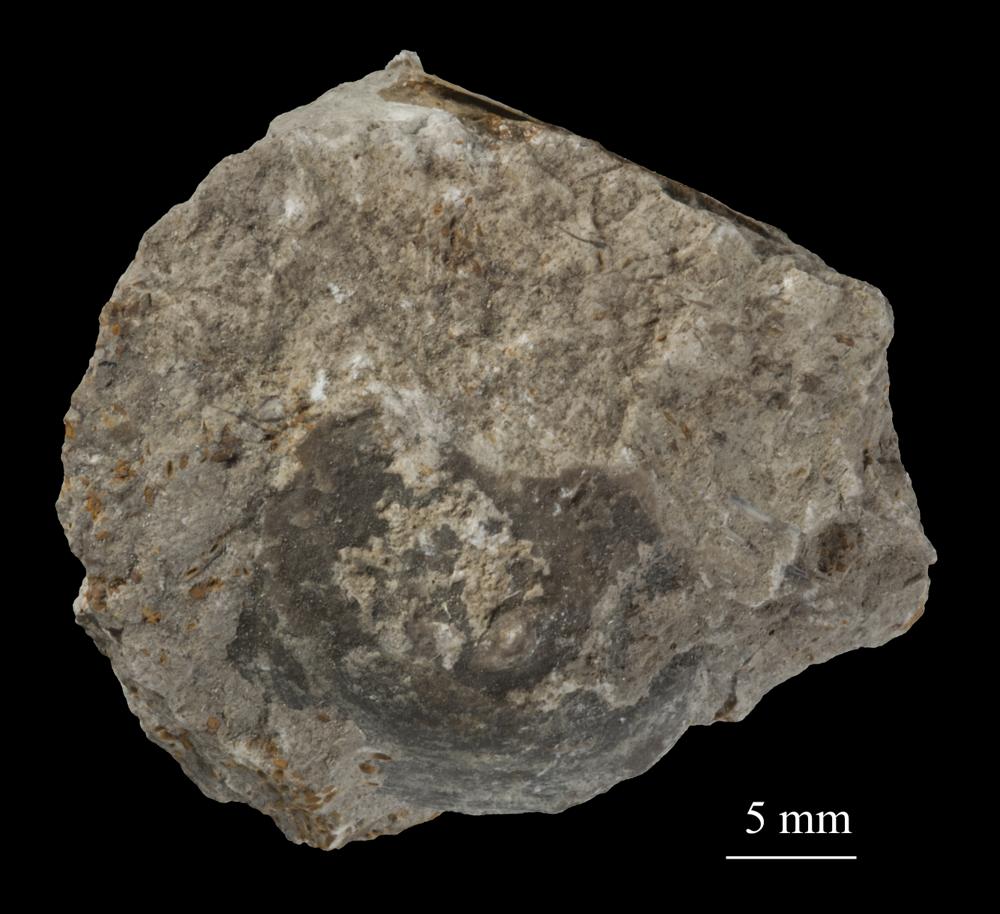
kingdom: Animalia
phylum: Brachiopoda
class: Craniata
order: Craniida
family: Craniidae
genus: Pseudocrania
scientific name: Pseudocrania
